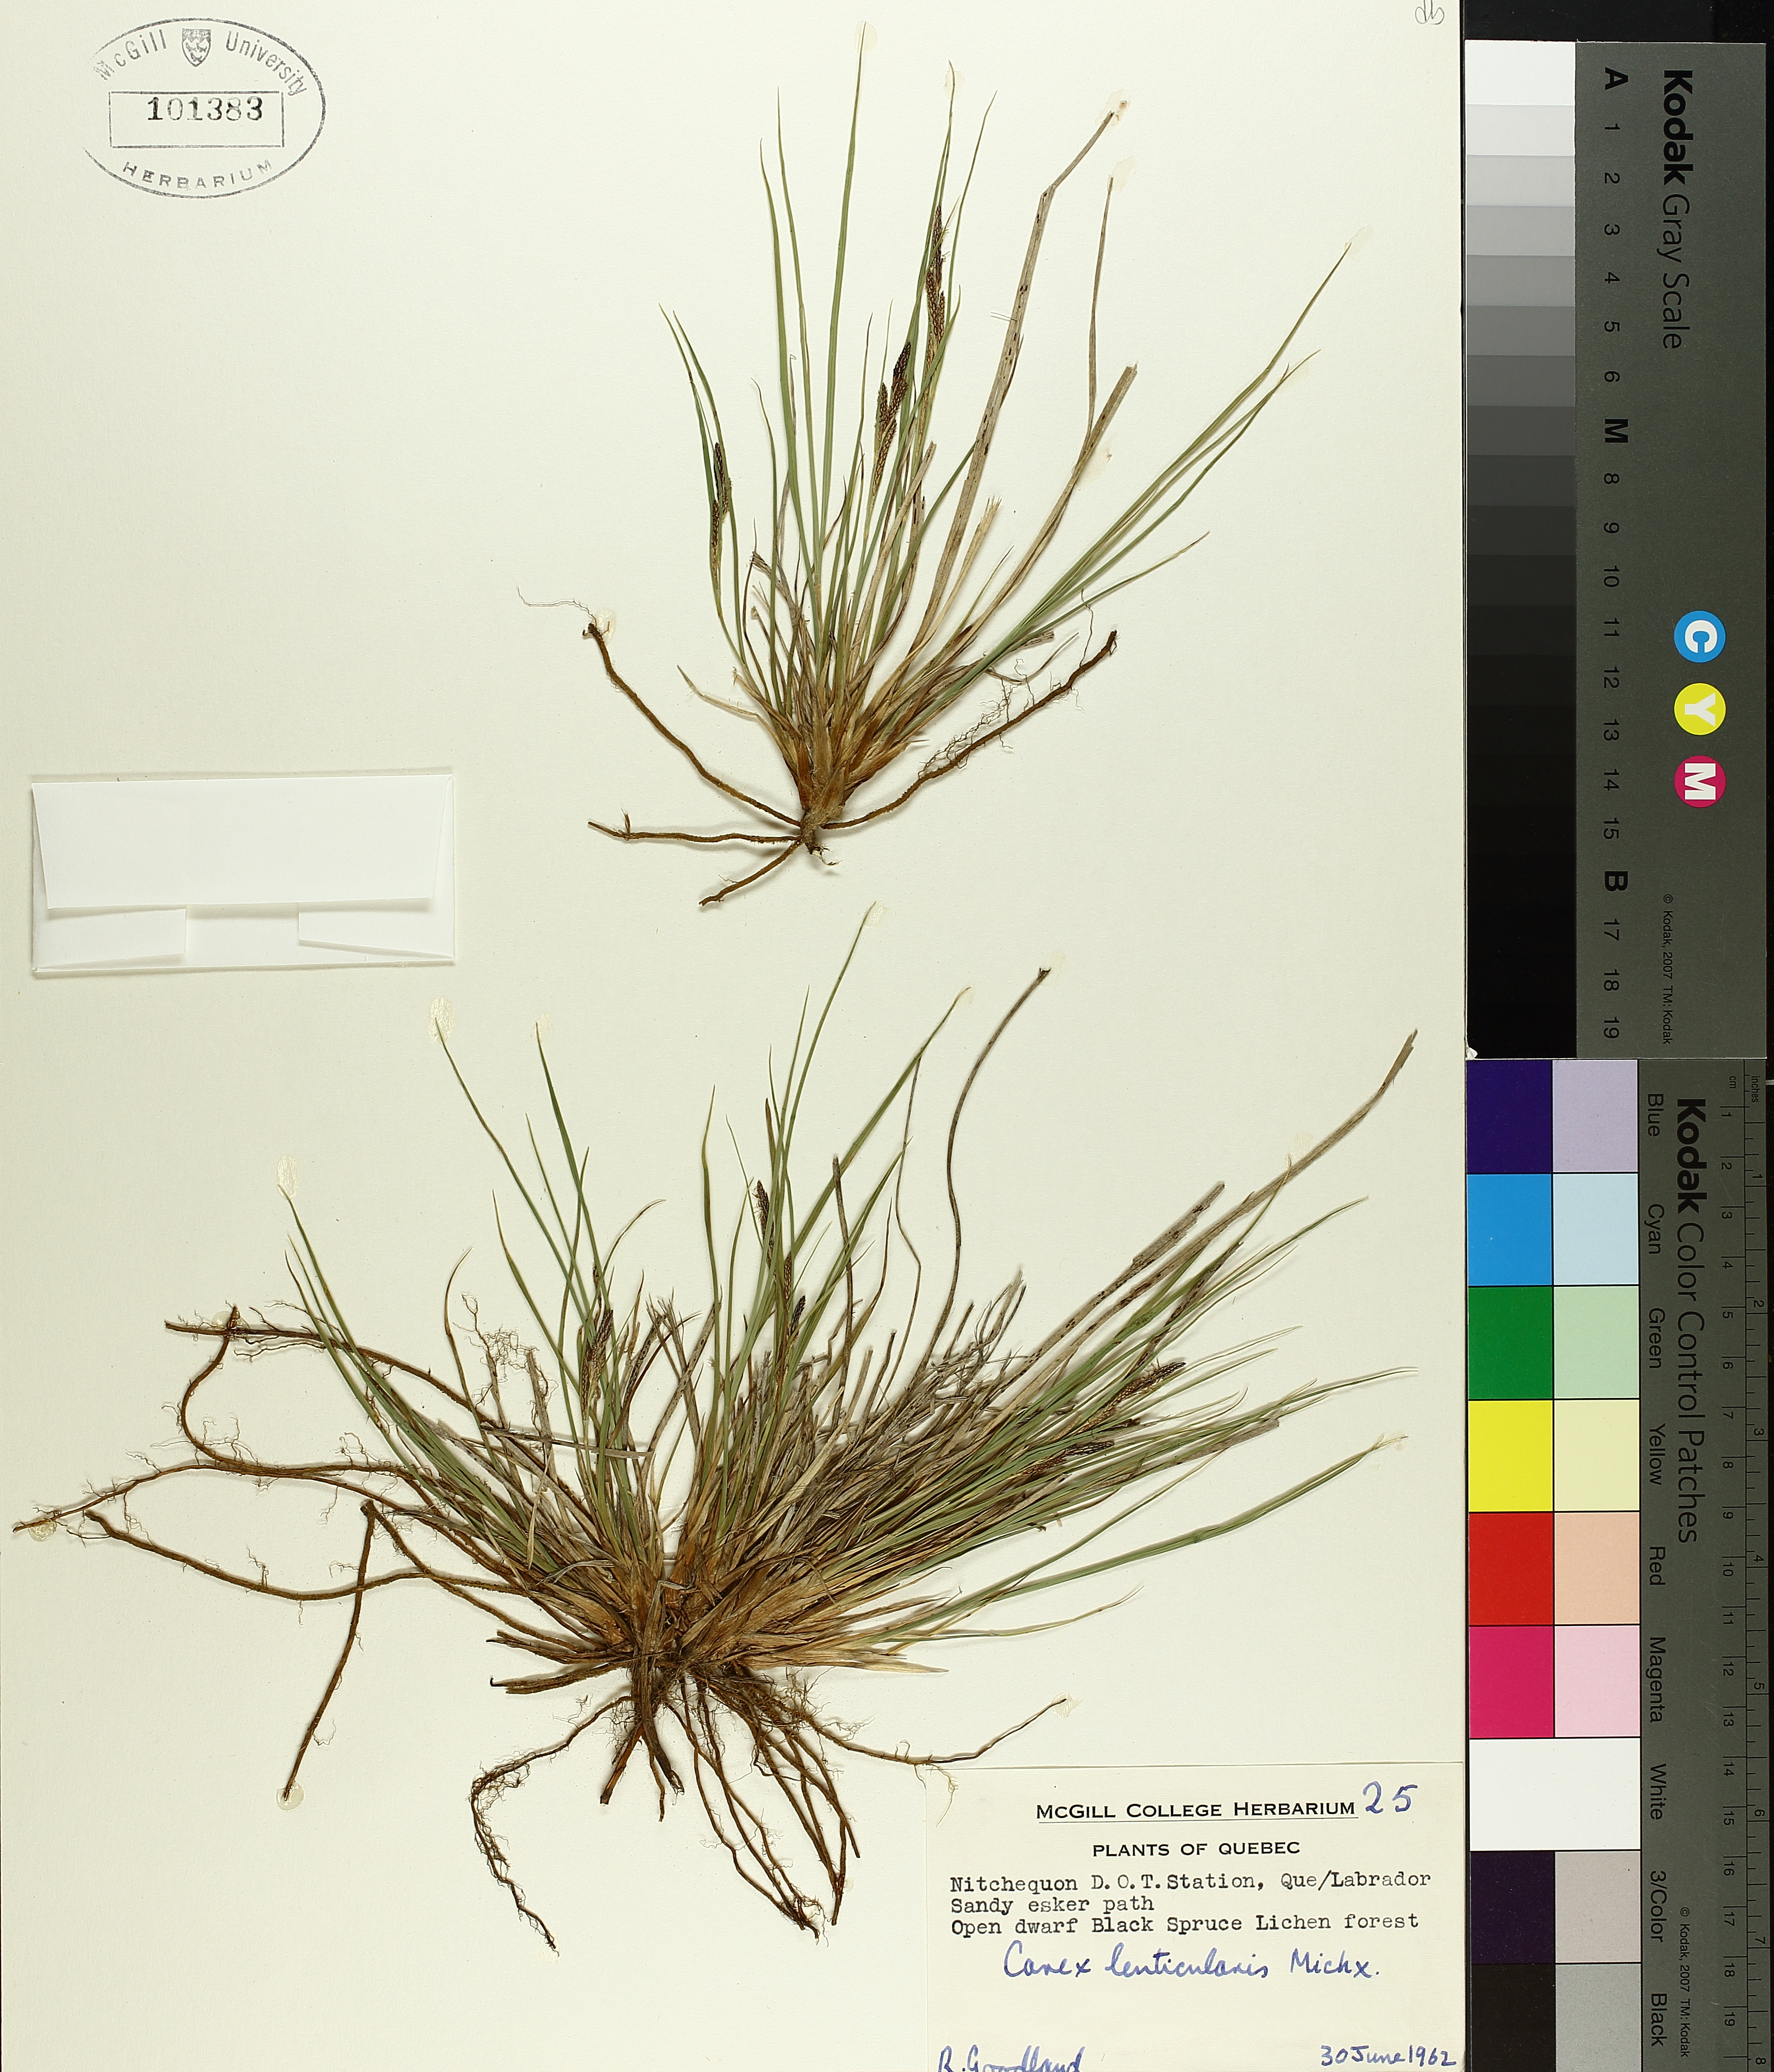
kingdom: Plantae
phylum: Tracheophyta
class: Liliopsida
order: Poales
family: Cyperaceae
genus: Carex
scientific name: Carex lenticularis
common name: Lakeshore sedge
